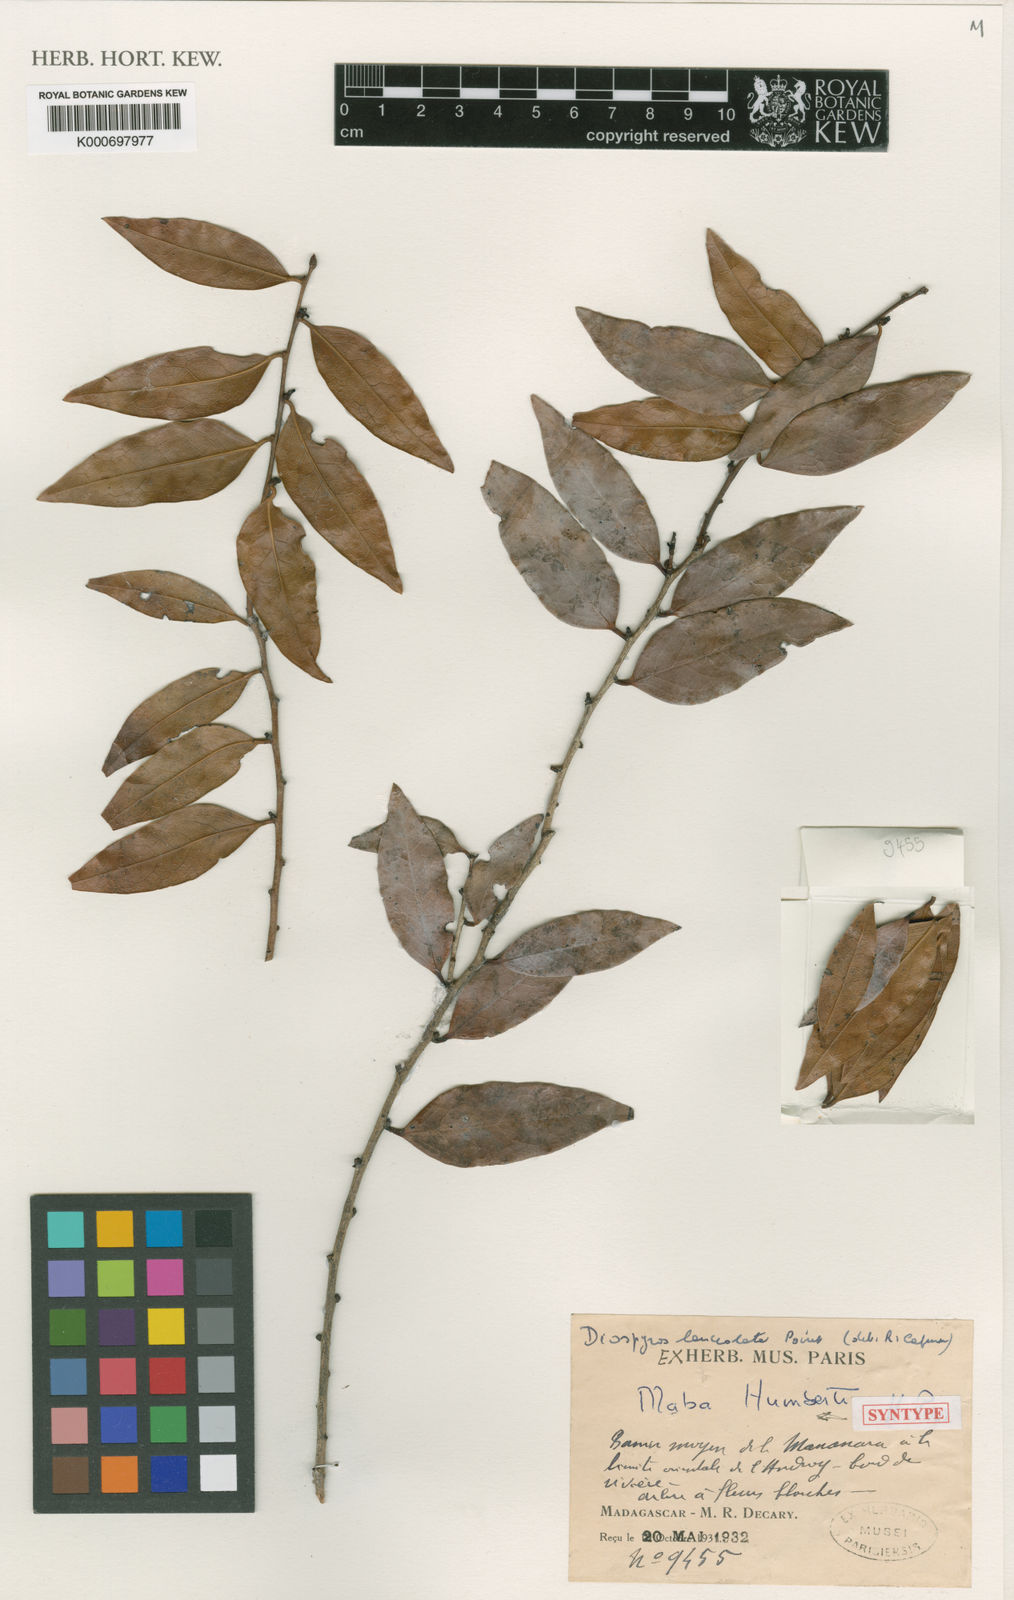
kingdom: Plantae
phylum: Tracheophyta
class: Magnoliopsida
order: Ericales
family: Ebenaceae
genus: Diospyros
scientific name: Diospyros lanceolata
